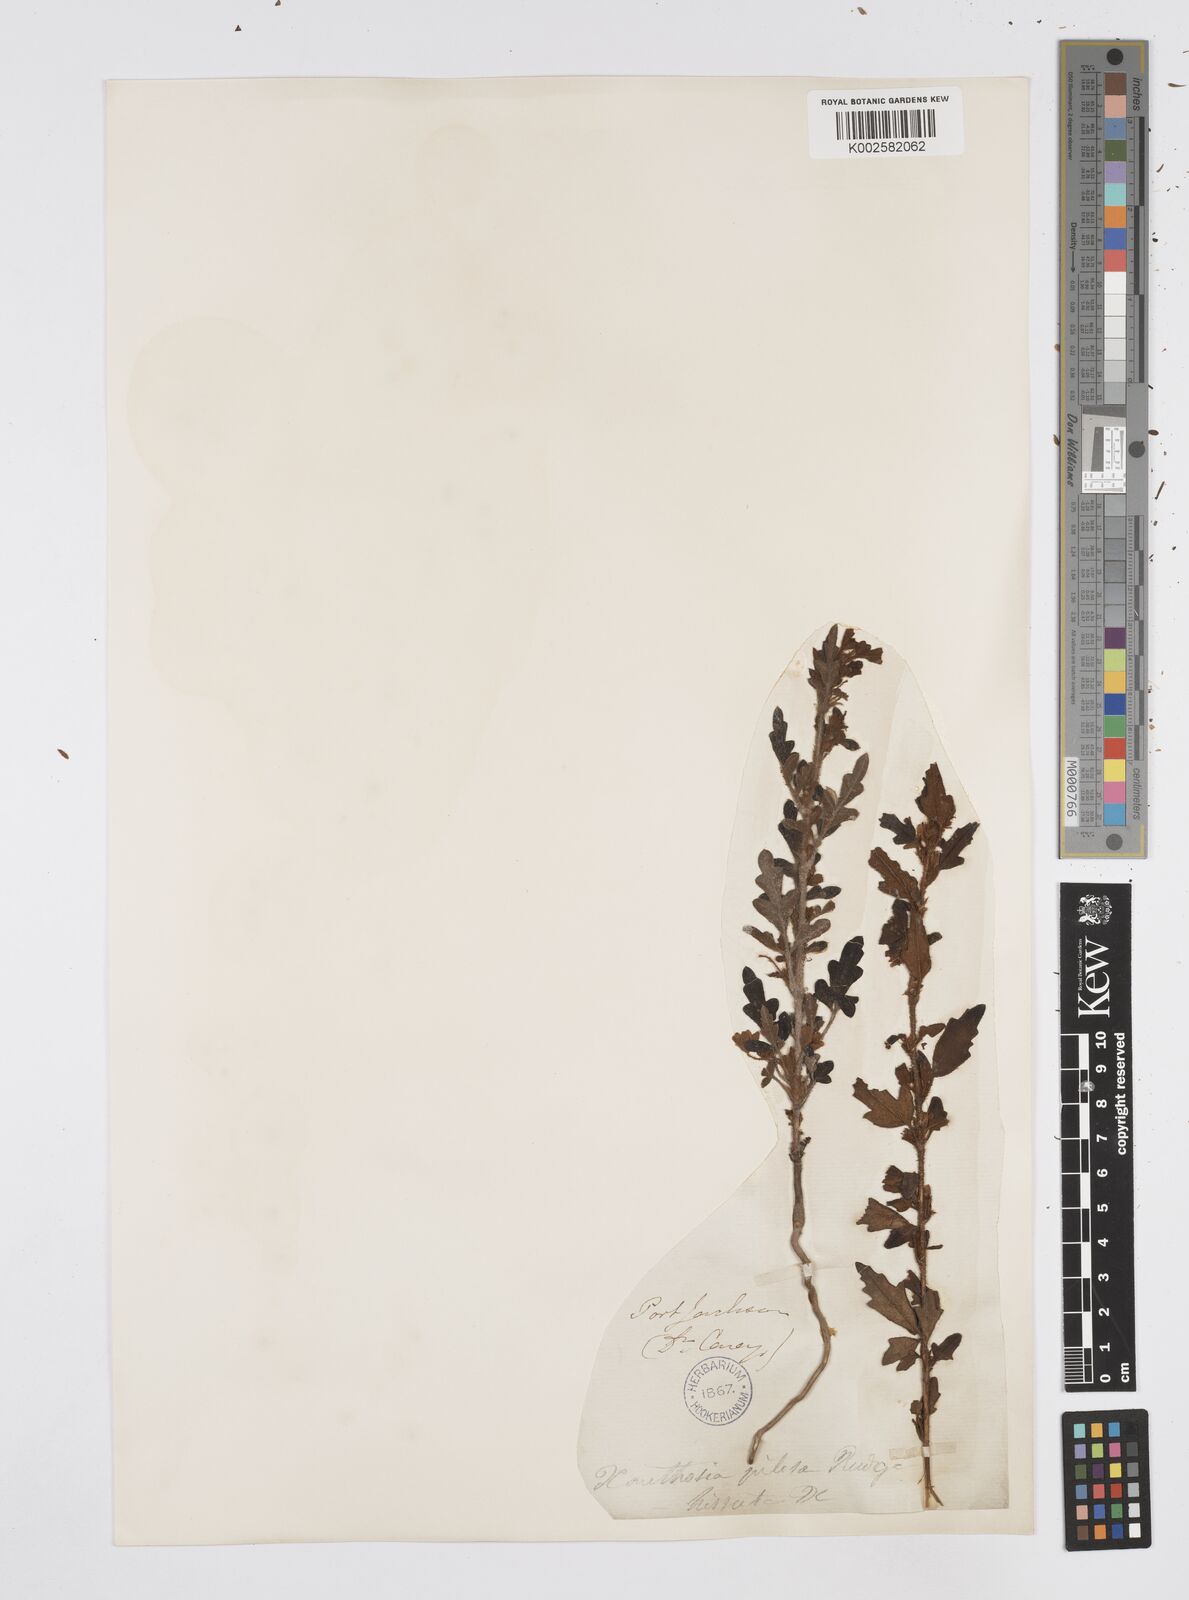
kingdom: Plantae
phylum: Tracheophyta
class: Magnoliopsida
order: Apiales
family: Apiaceae
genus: Xanthosia
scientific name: Xanthosia pilosa
